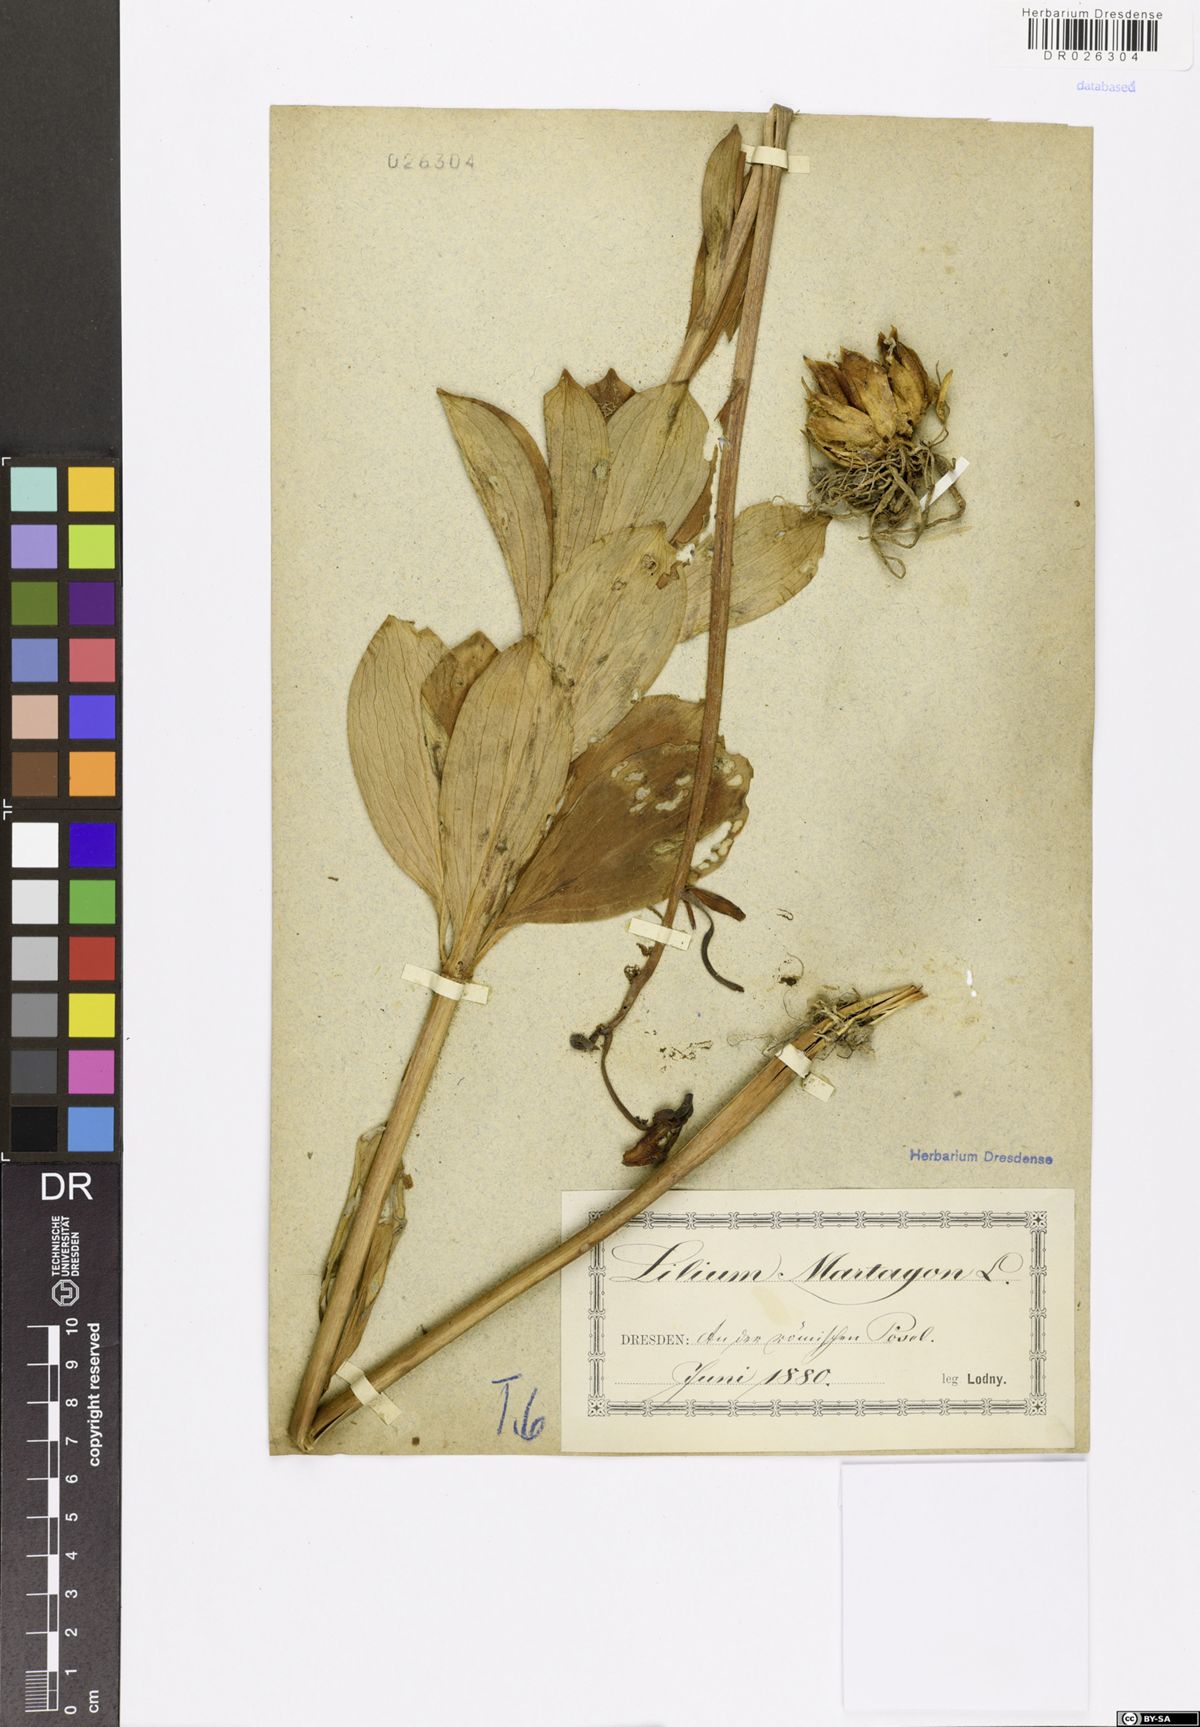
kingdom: Plantae
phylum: Tracheophyta
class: Liliopsida
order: Liliales
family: Liliaceae
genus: Lilium
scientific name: Lilium martagon
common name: Martagon lily
